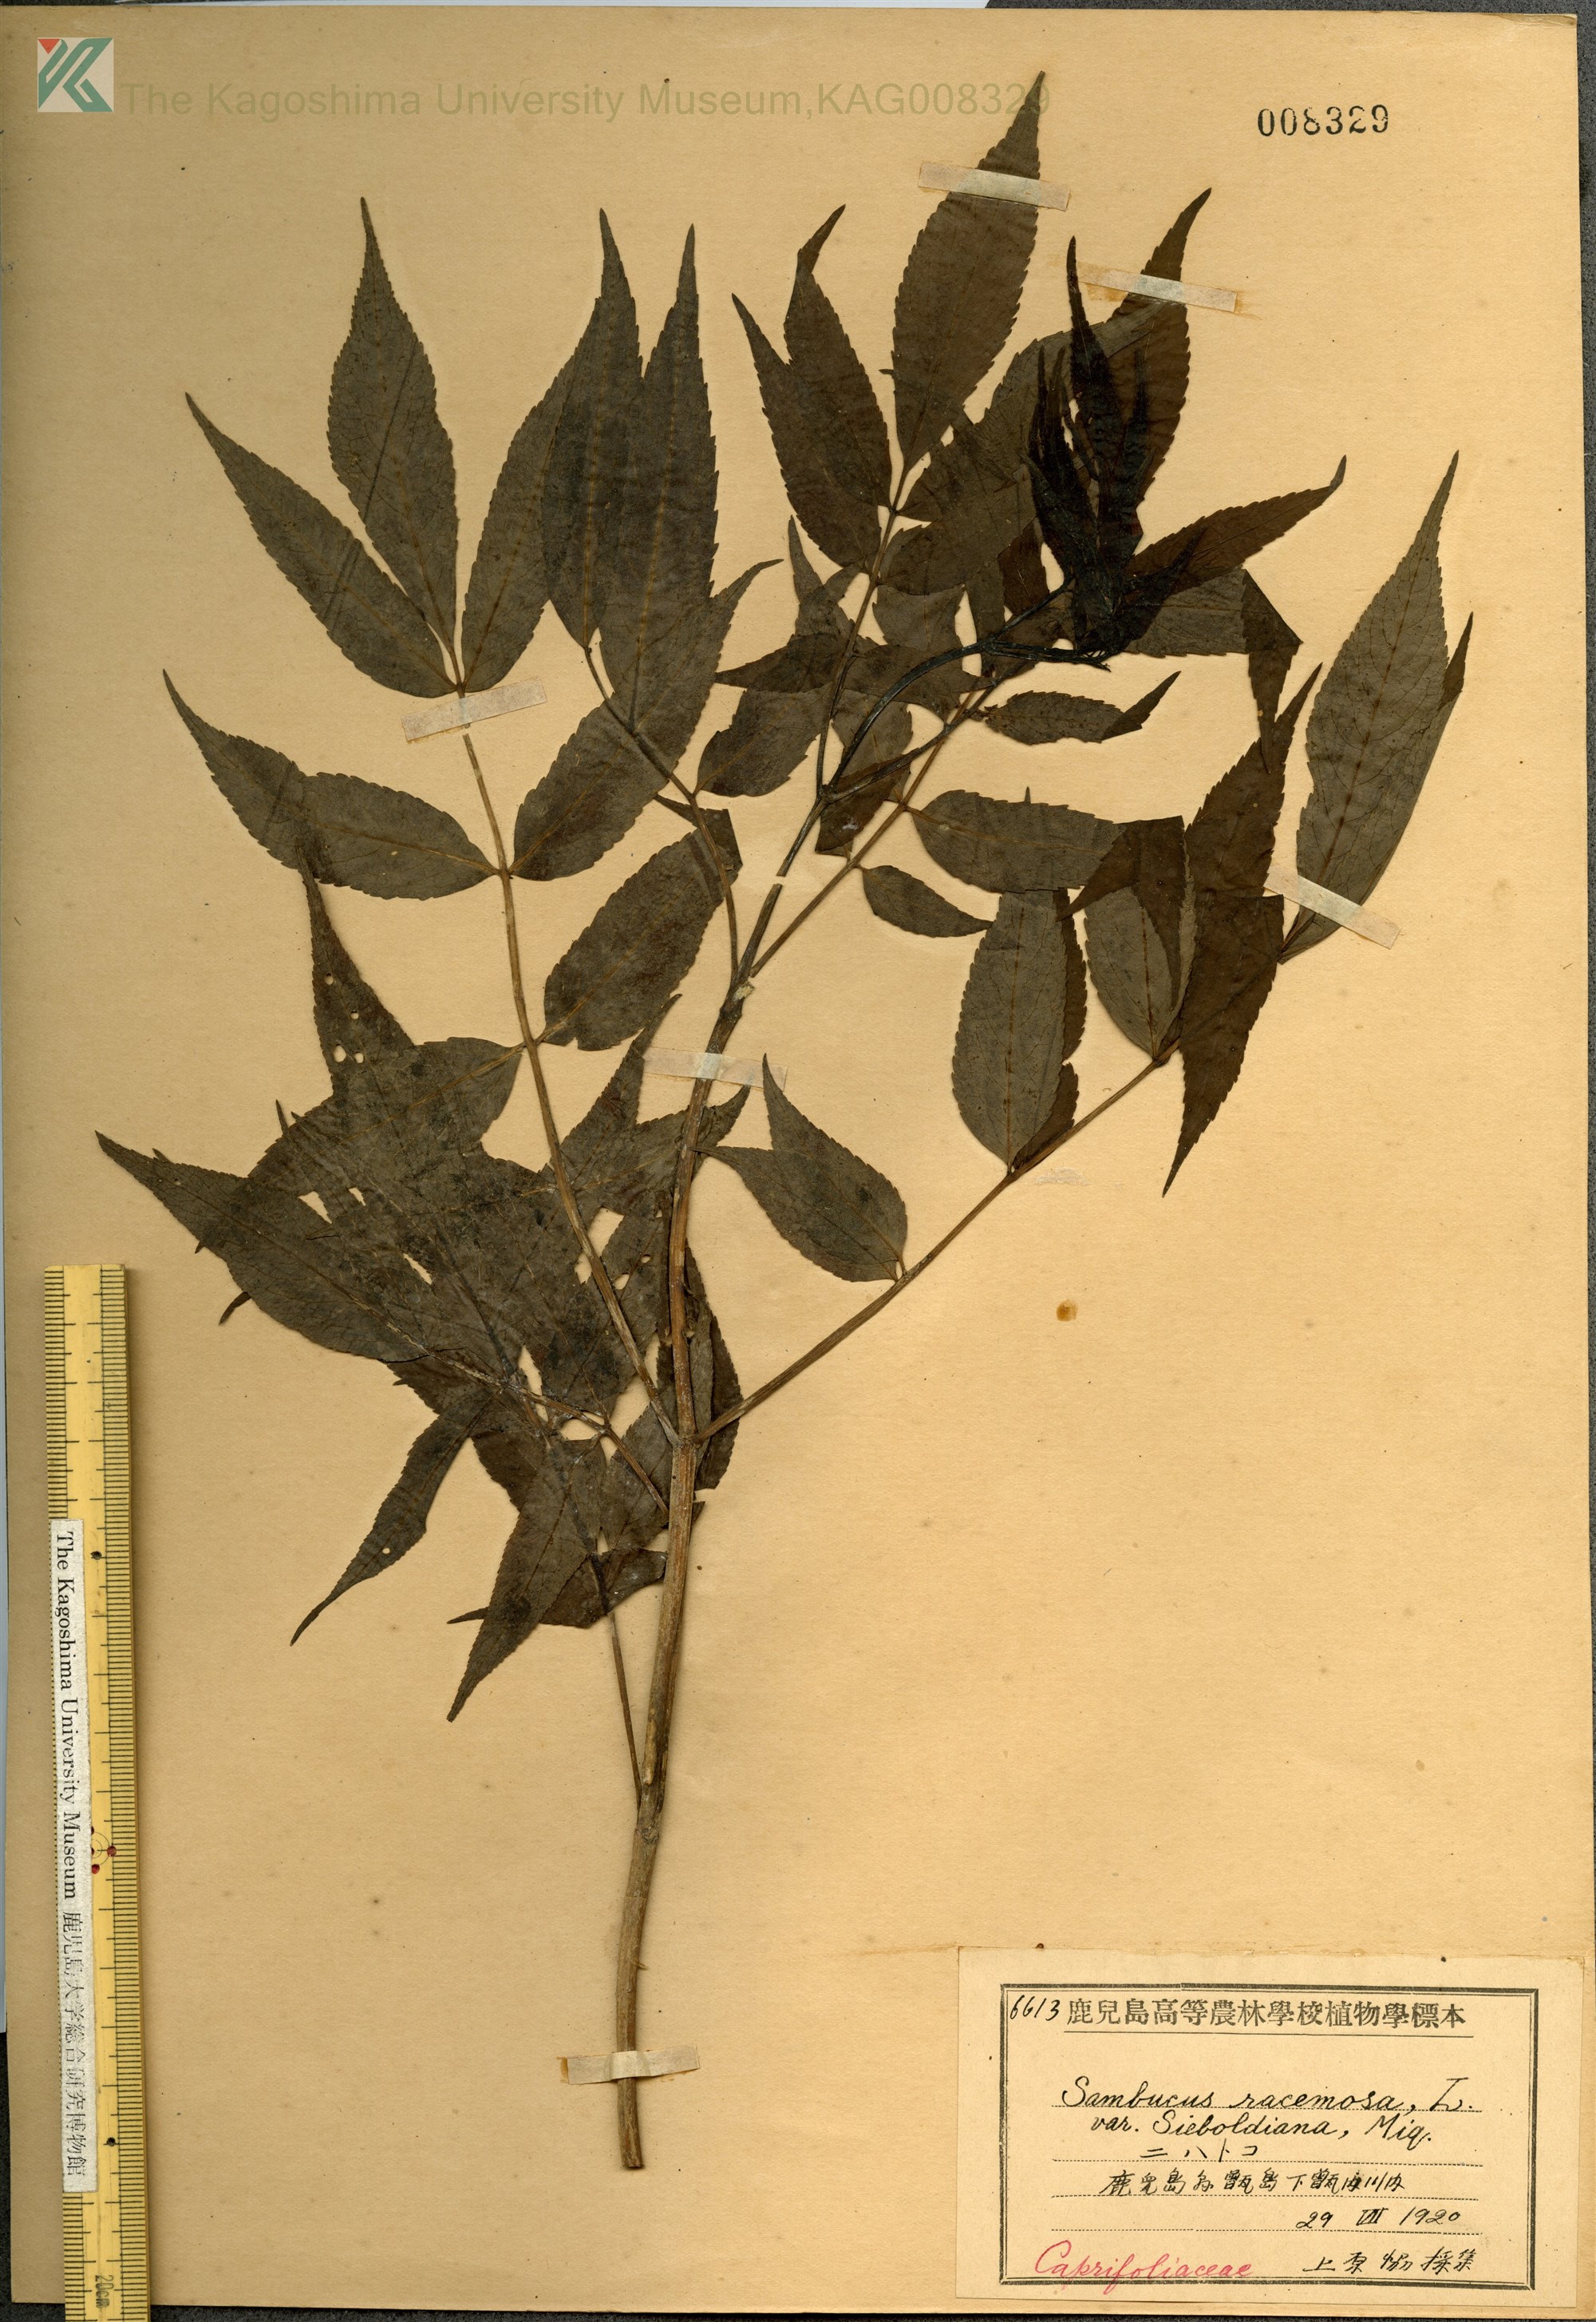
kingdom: Plantae
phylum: Tracheophyta
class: Magnoliopsida
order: Dipsacales
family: Viburnaceae
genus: Sambucus
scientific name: Sambucus sieboldiana
